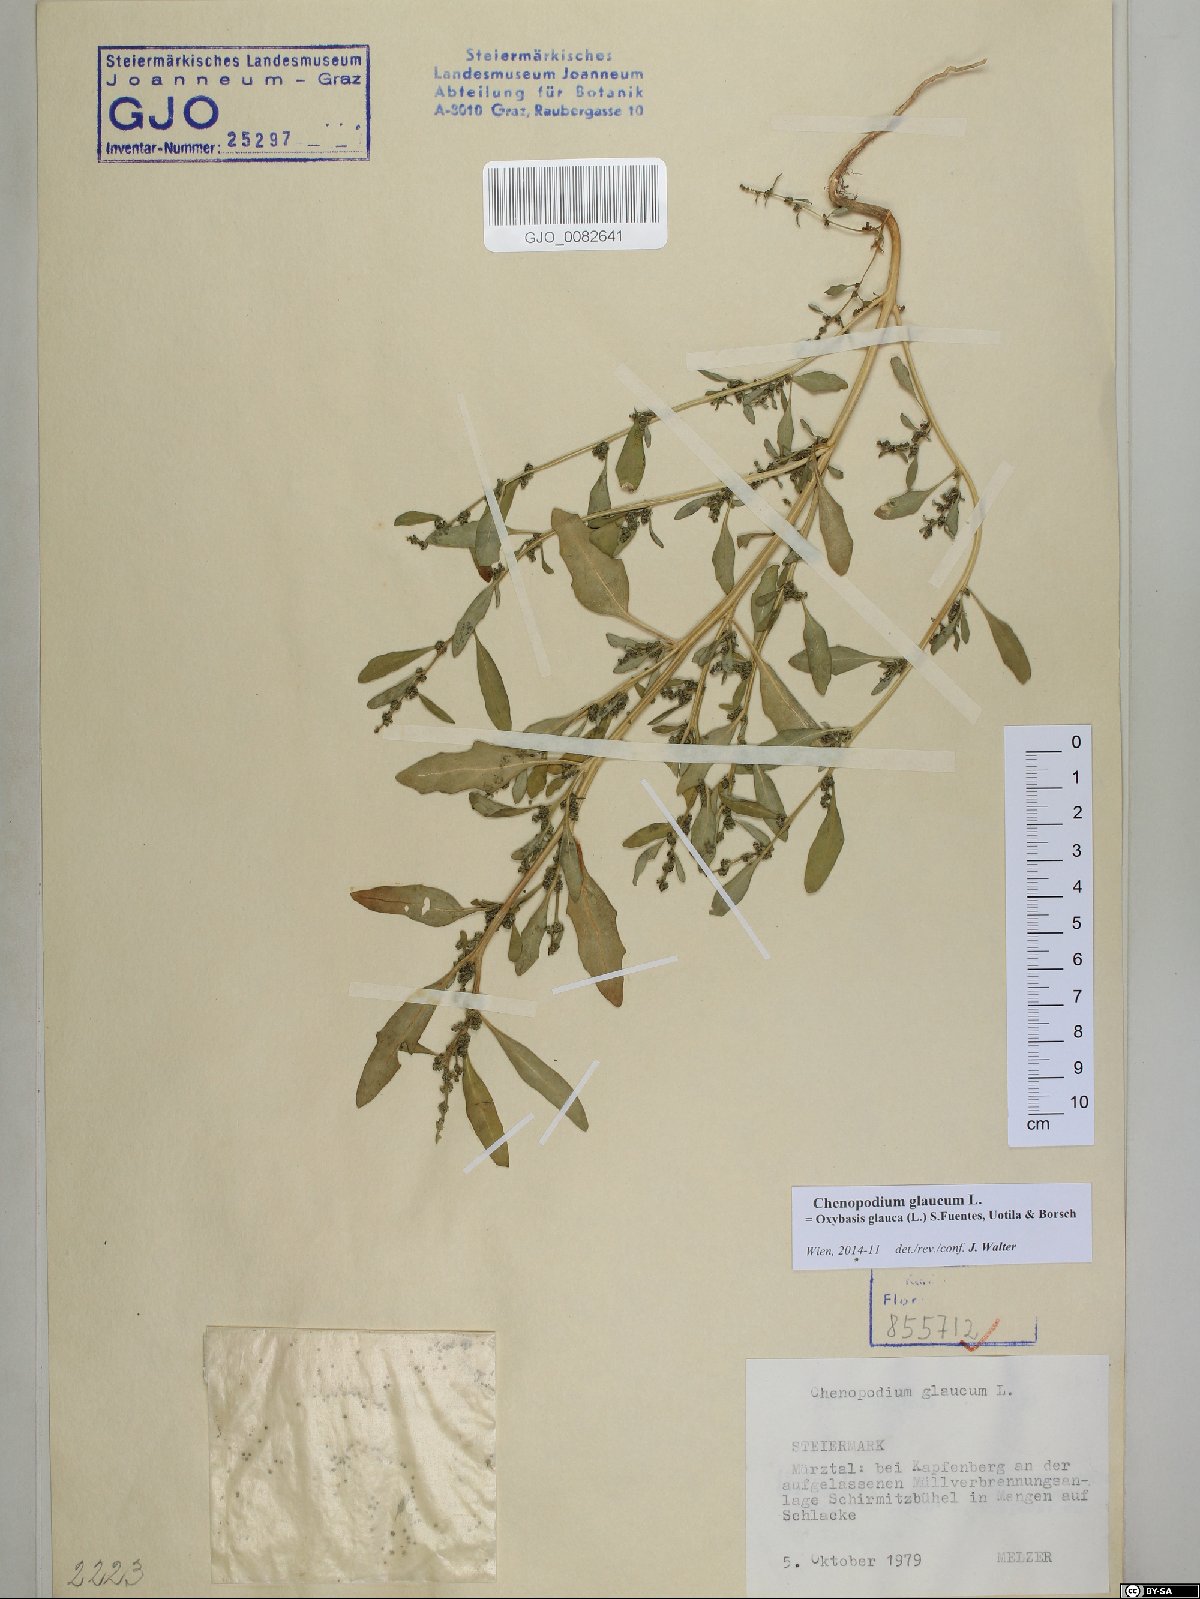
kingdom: Plantae
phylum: Tracheophyta
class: Magnoliopsida
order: Caryophyllales
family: Amaranthaceae
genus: Oxybasis
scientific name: Oxybasis glauca
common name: Glaucous goosefoot
